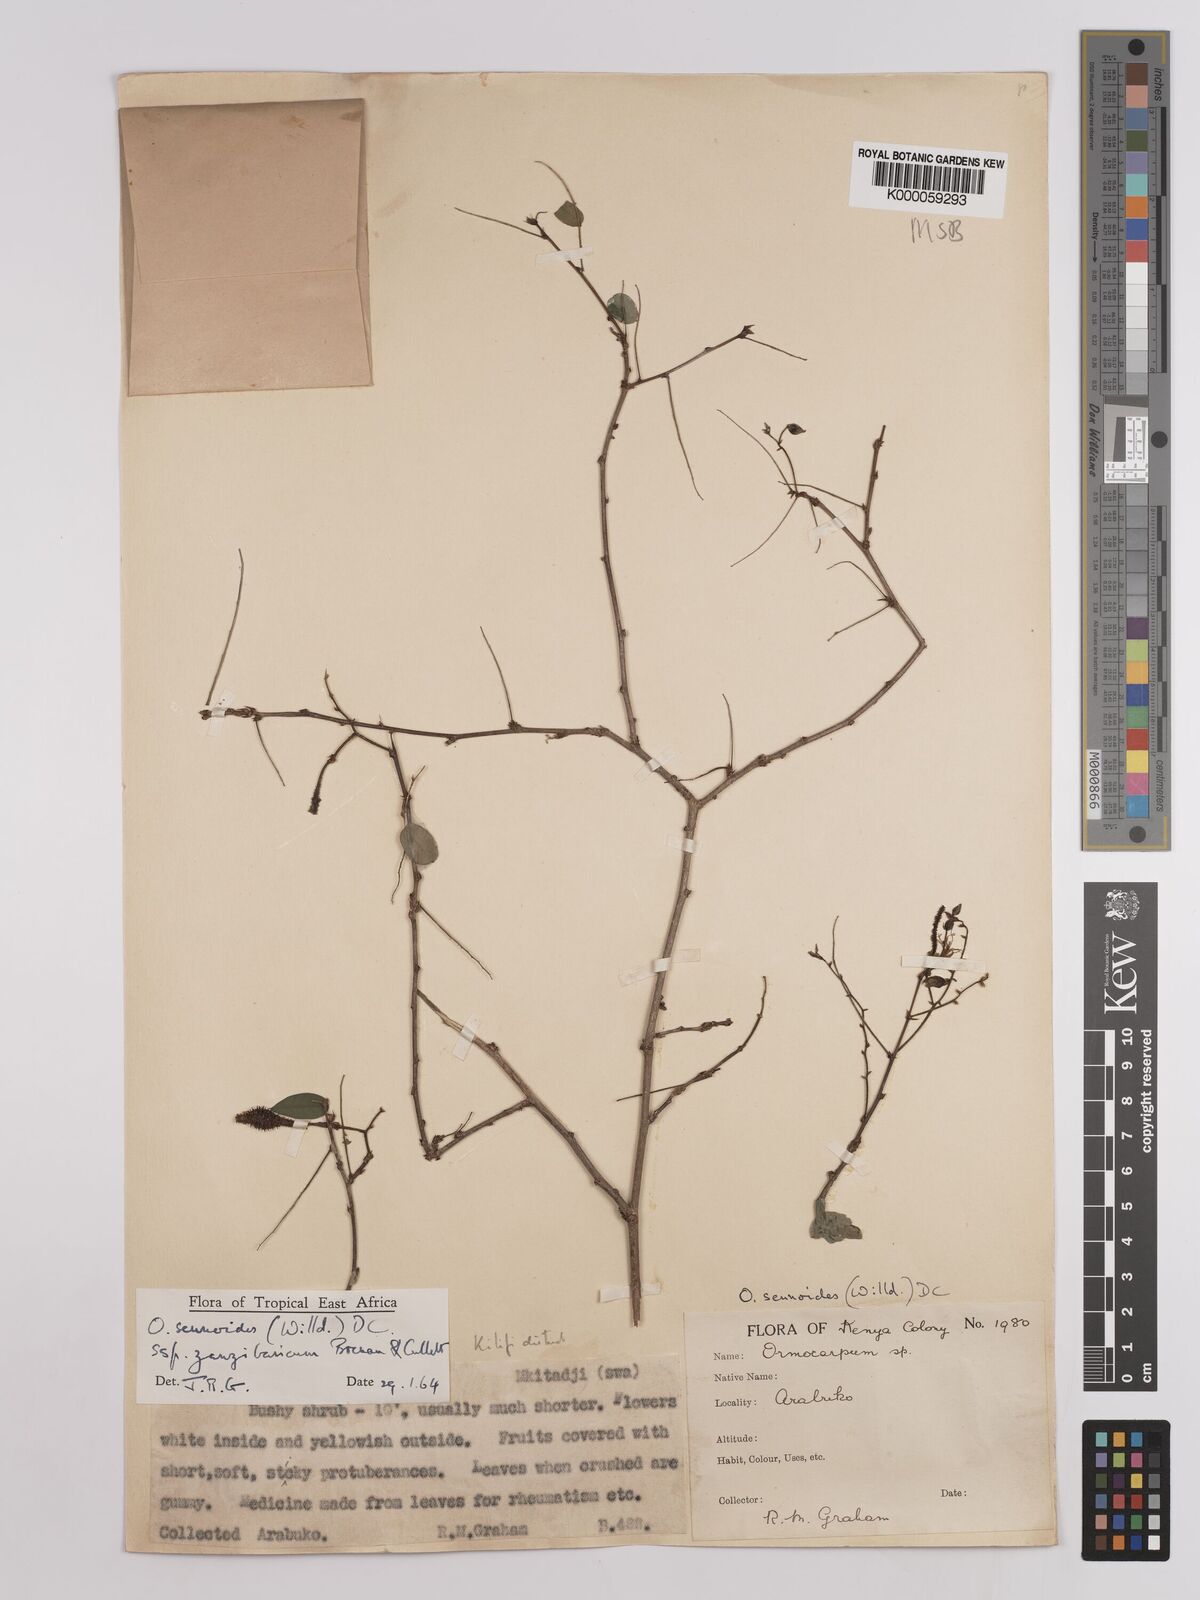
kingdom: Plantae
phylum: Tracheophyta
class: Magnoliopsida
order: Fabales
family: Fabaceae
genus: Ormocarpum
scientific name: Ormocarpum sennoides
